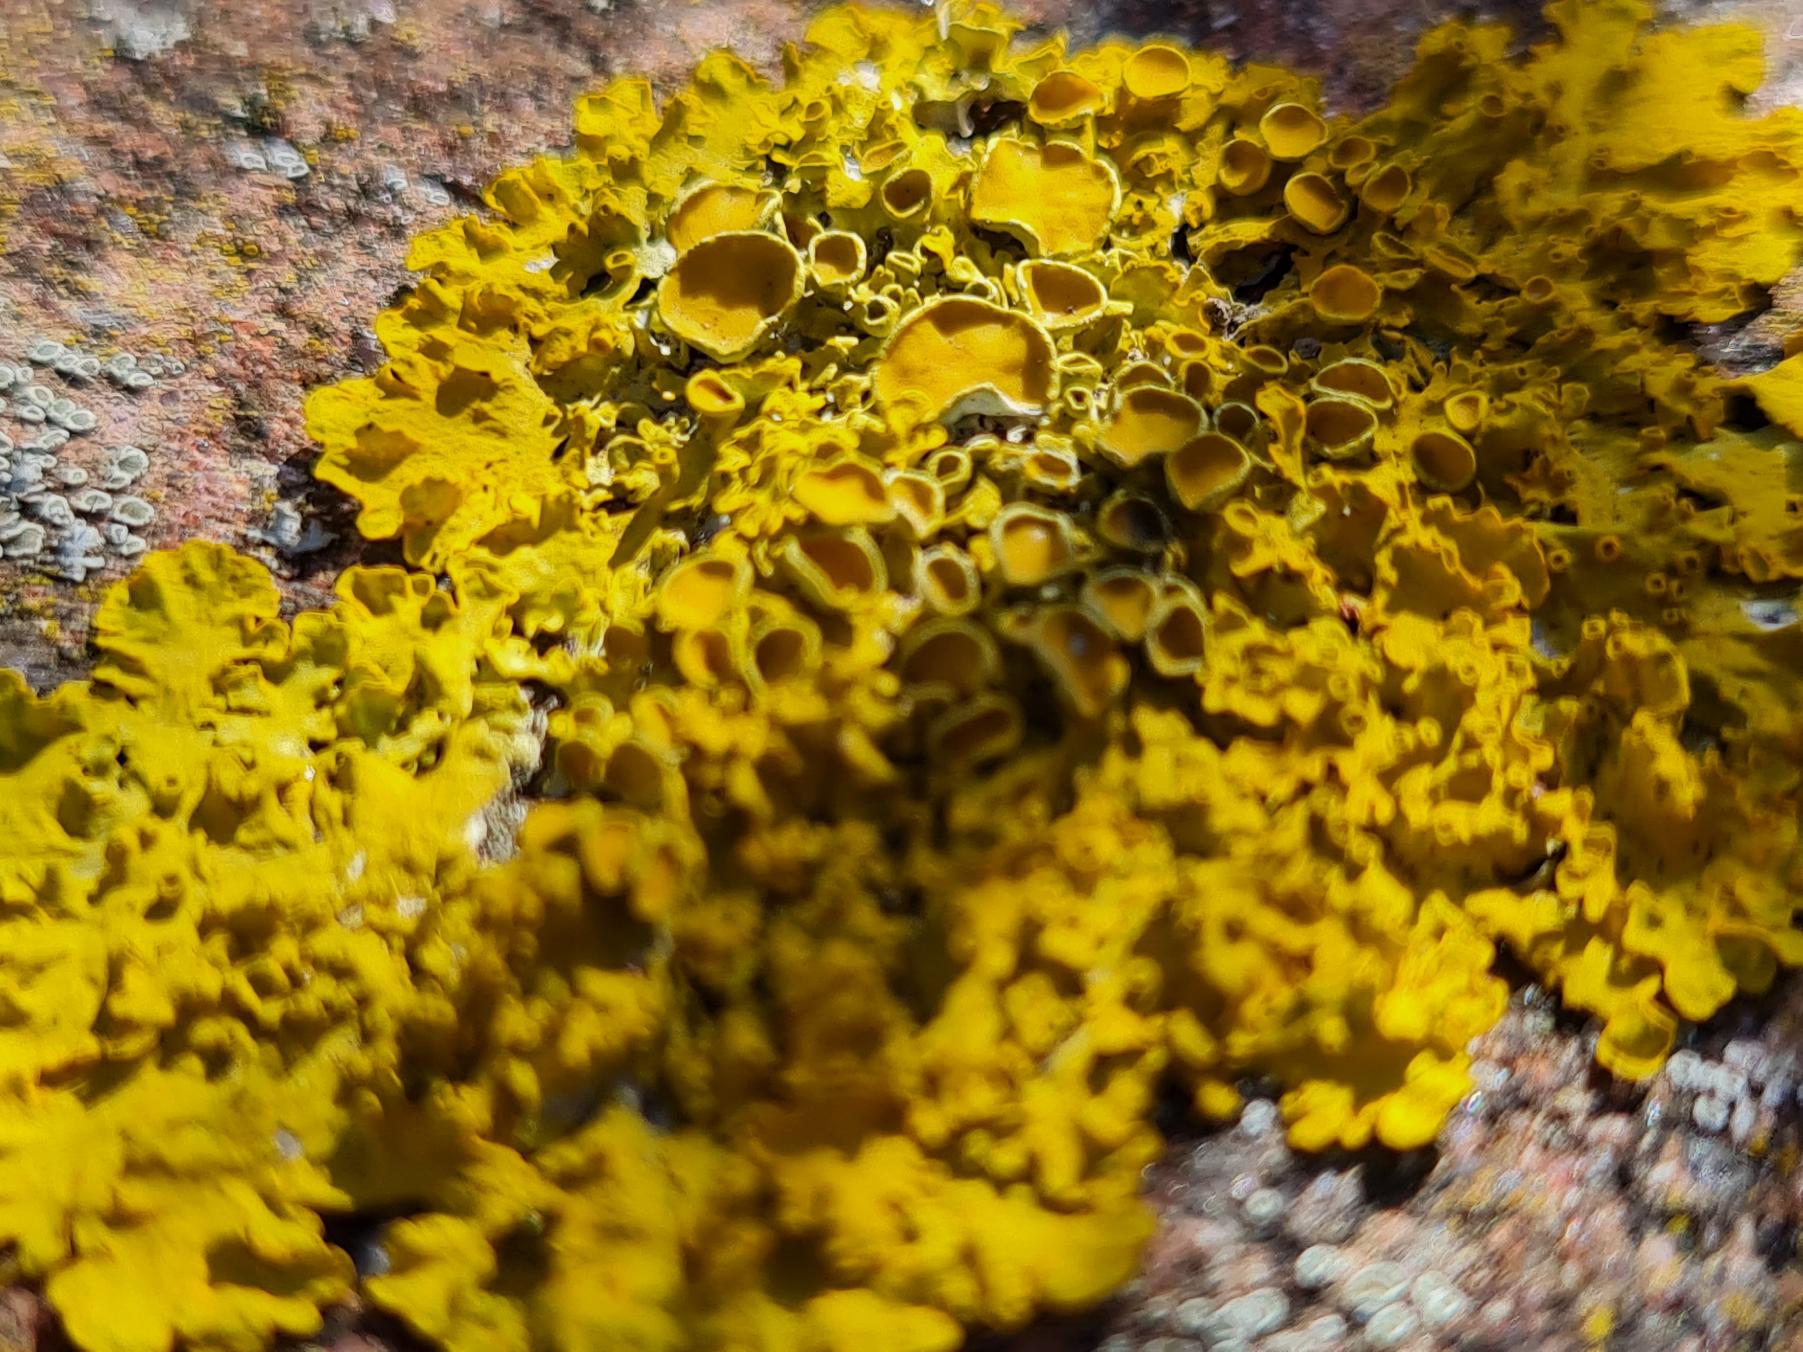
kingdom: Fungi
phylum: Ascomycota
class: Lecanoromycetes
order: Teloschistales
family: Teloschistaceae
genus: Xanthoria
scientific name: Xanthoria parietina
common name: Almindelig væggelav
